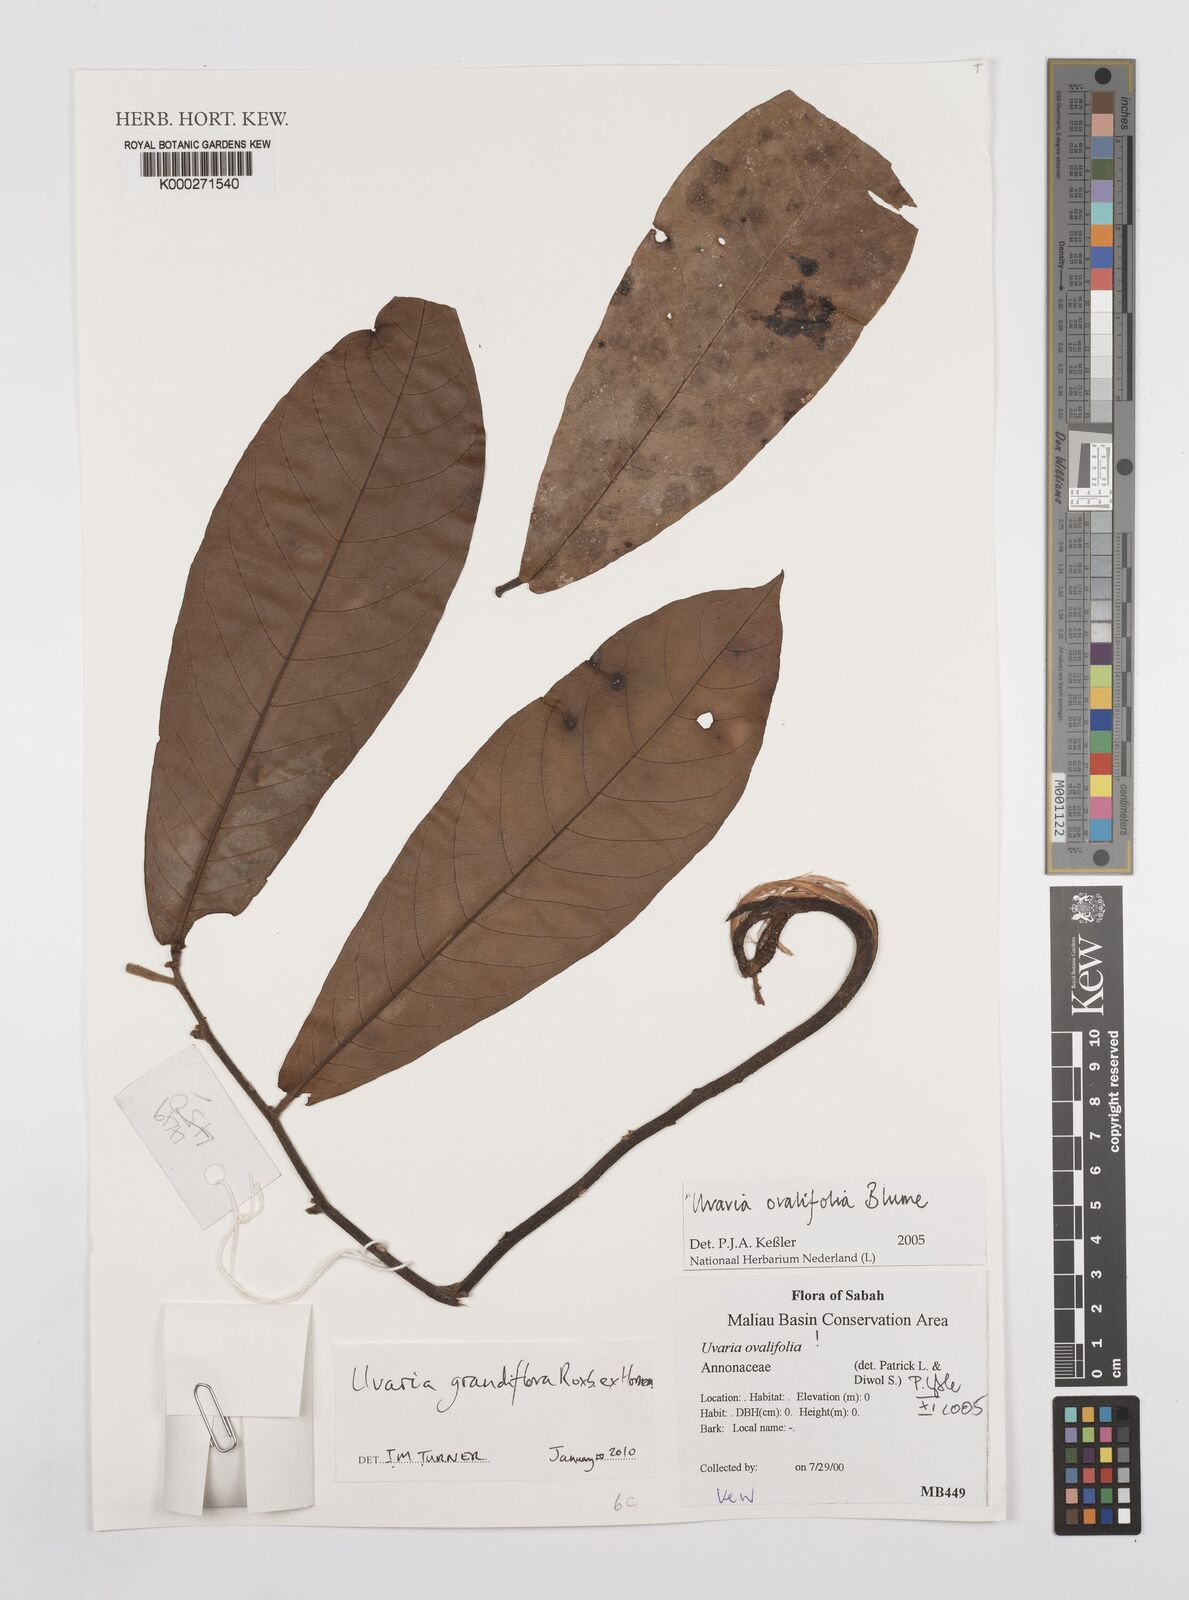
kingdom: Plantae
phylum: Tracheophyta
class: Magnoliopsida
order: Magnoliales
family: Annonaceae
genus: Uvaria
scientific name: Uvaria littoralis
